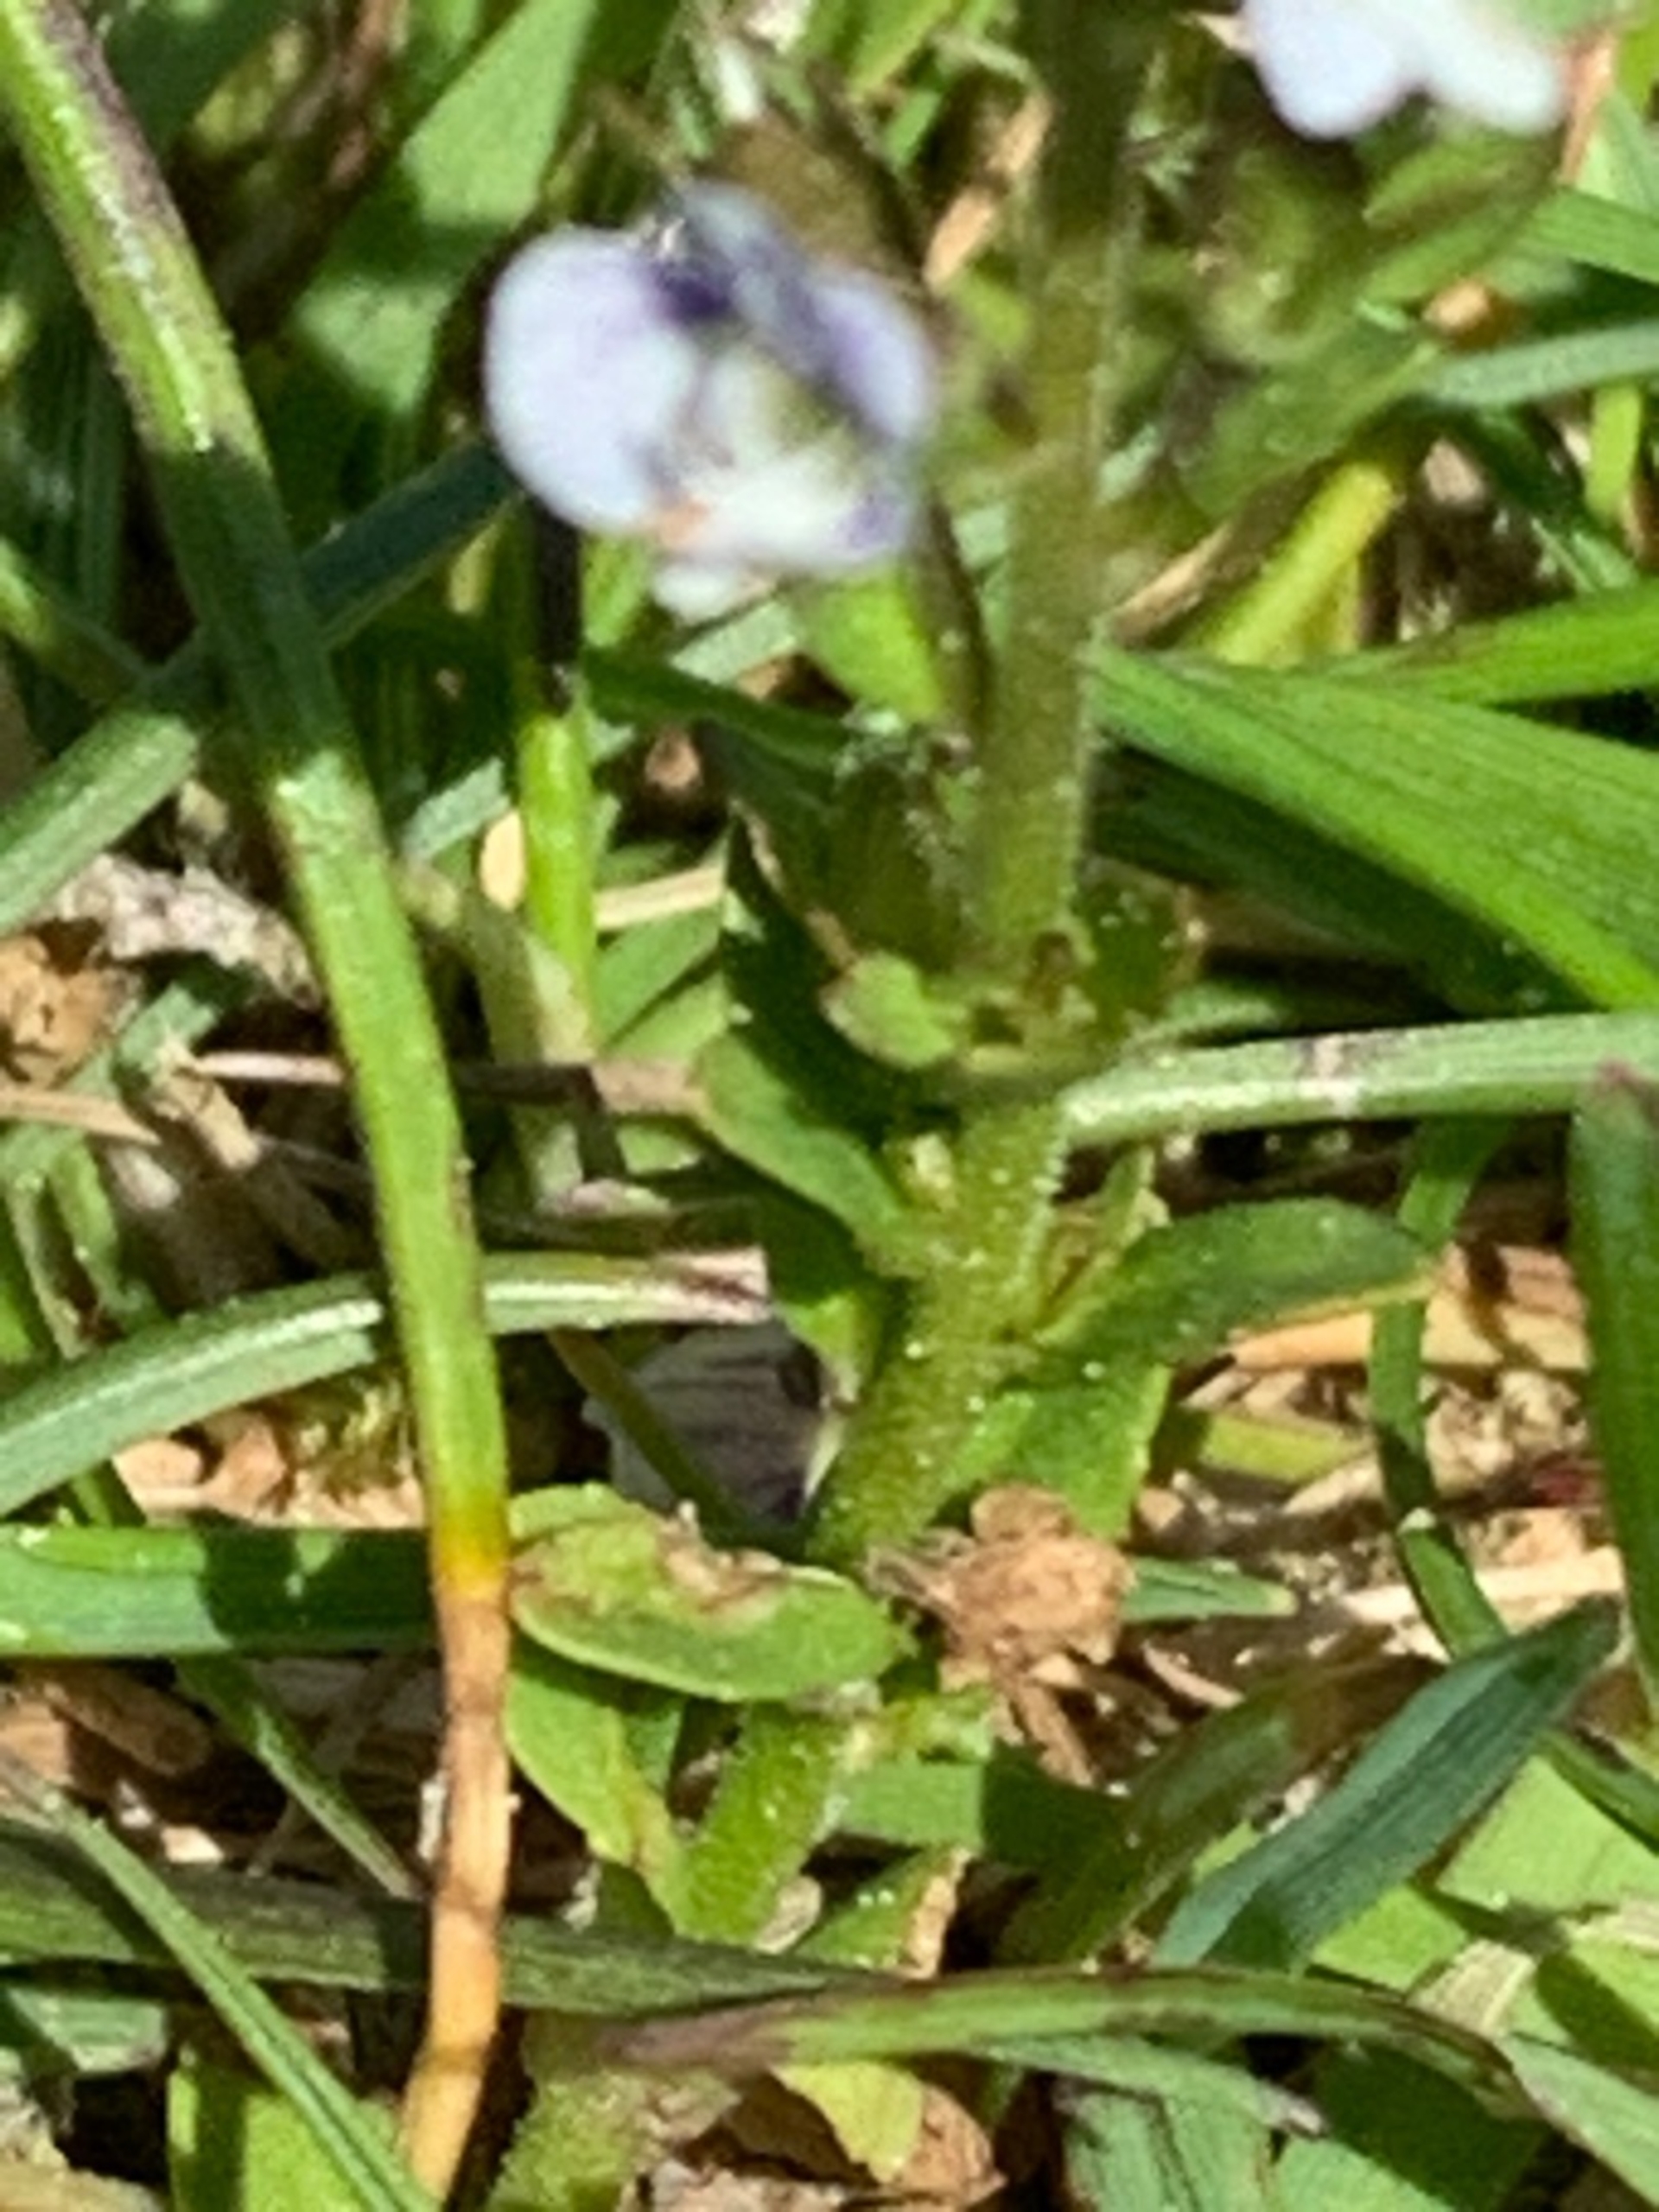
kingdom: Plantae
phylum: Tracheophyta
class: Magnoliopsida
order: Lamiales
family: Plantaginaceae
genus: Veronica
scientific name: Veronica serpyllifolia
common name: Glat ærenpris
